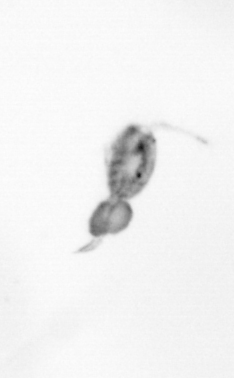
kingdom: Animalia
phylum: Arthropoda
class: Copepoda
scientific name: Copepoda
